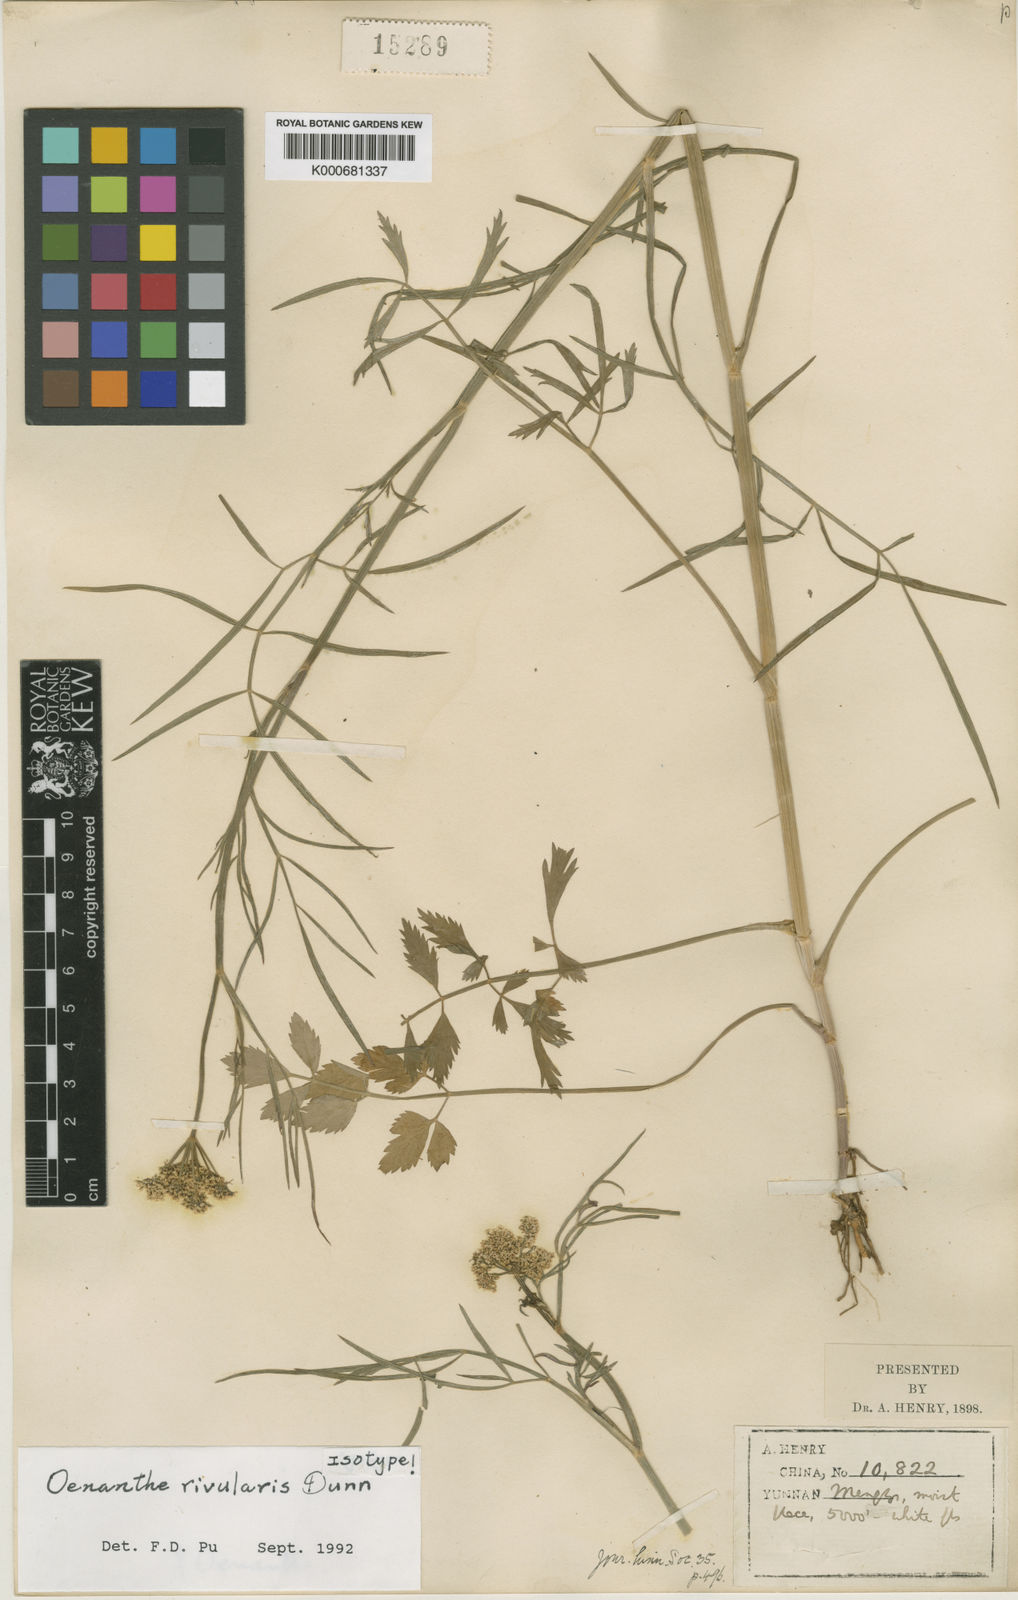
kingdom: Plantae
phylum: Tracheophyta
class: Magnoliopsida
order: Apiales
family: Apiaceae
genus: Oenanthe
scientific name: Oenanthe linearis
